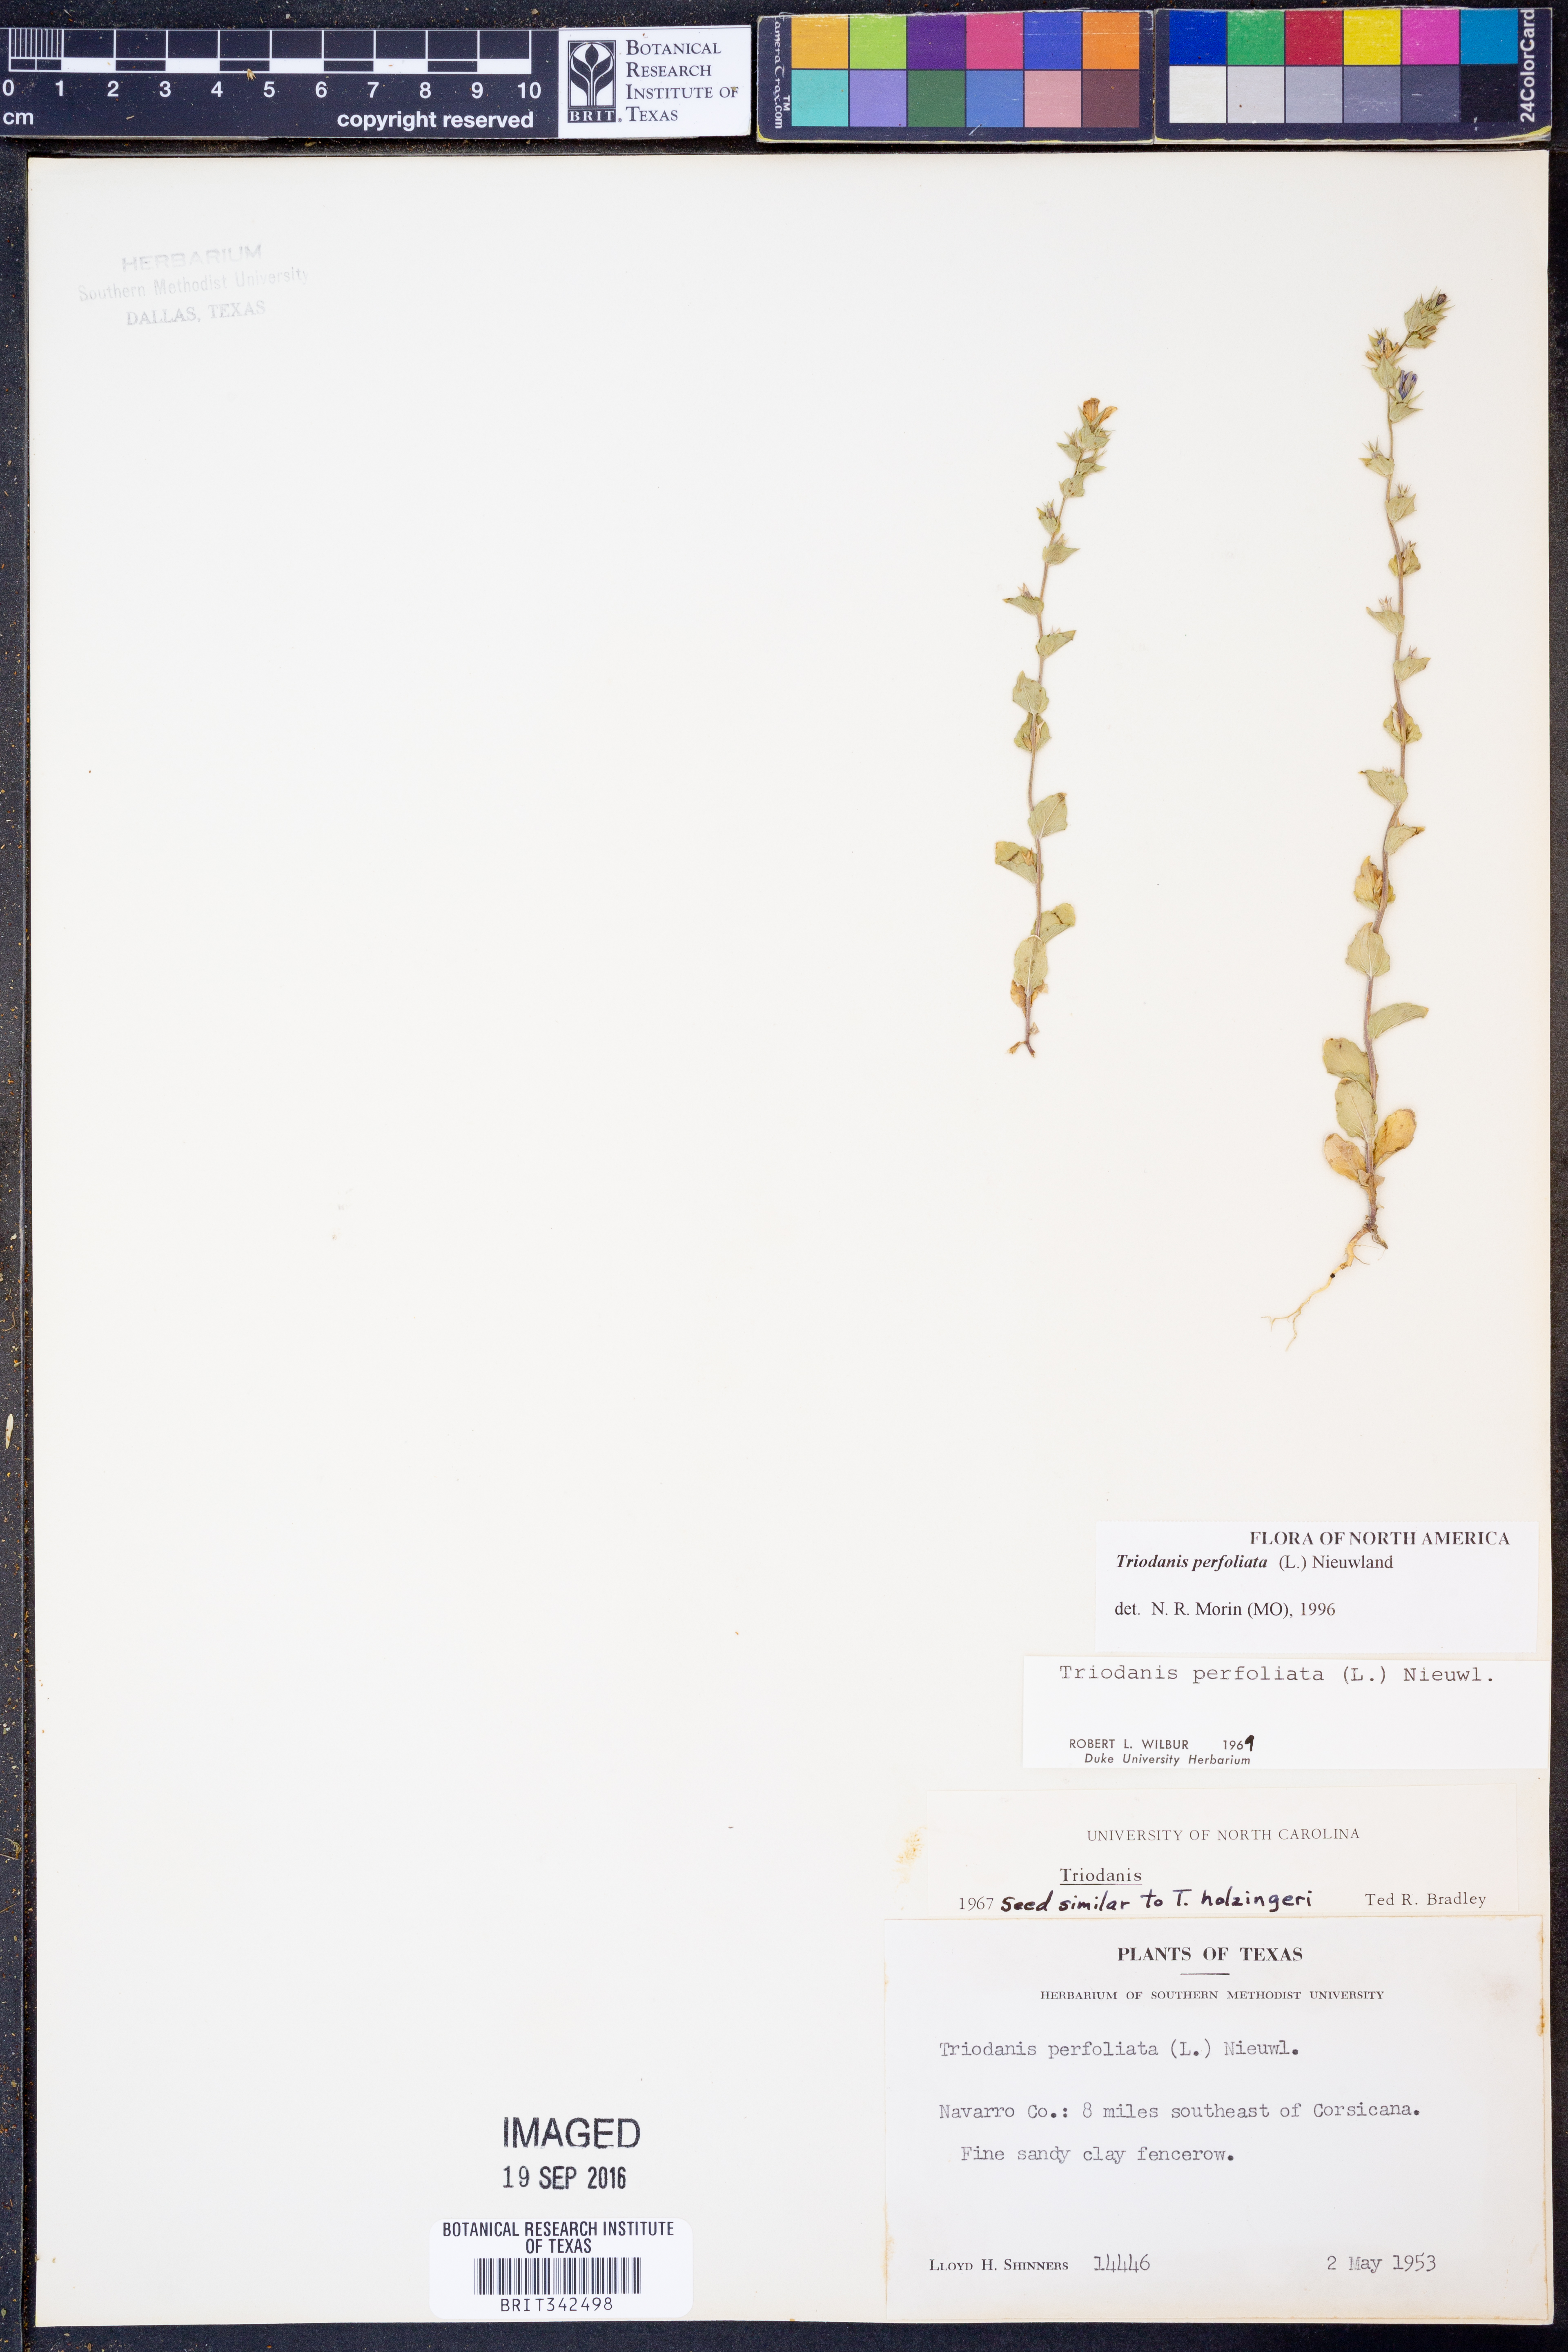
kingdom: Plantae
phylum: Tracheophyta
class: Magnoliopsida
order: Asterales
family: Campanulaceae
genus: Triodanis
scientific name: Triodanis perfoliata
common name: Clasping venus' looking-glass
